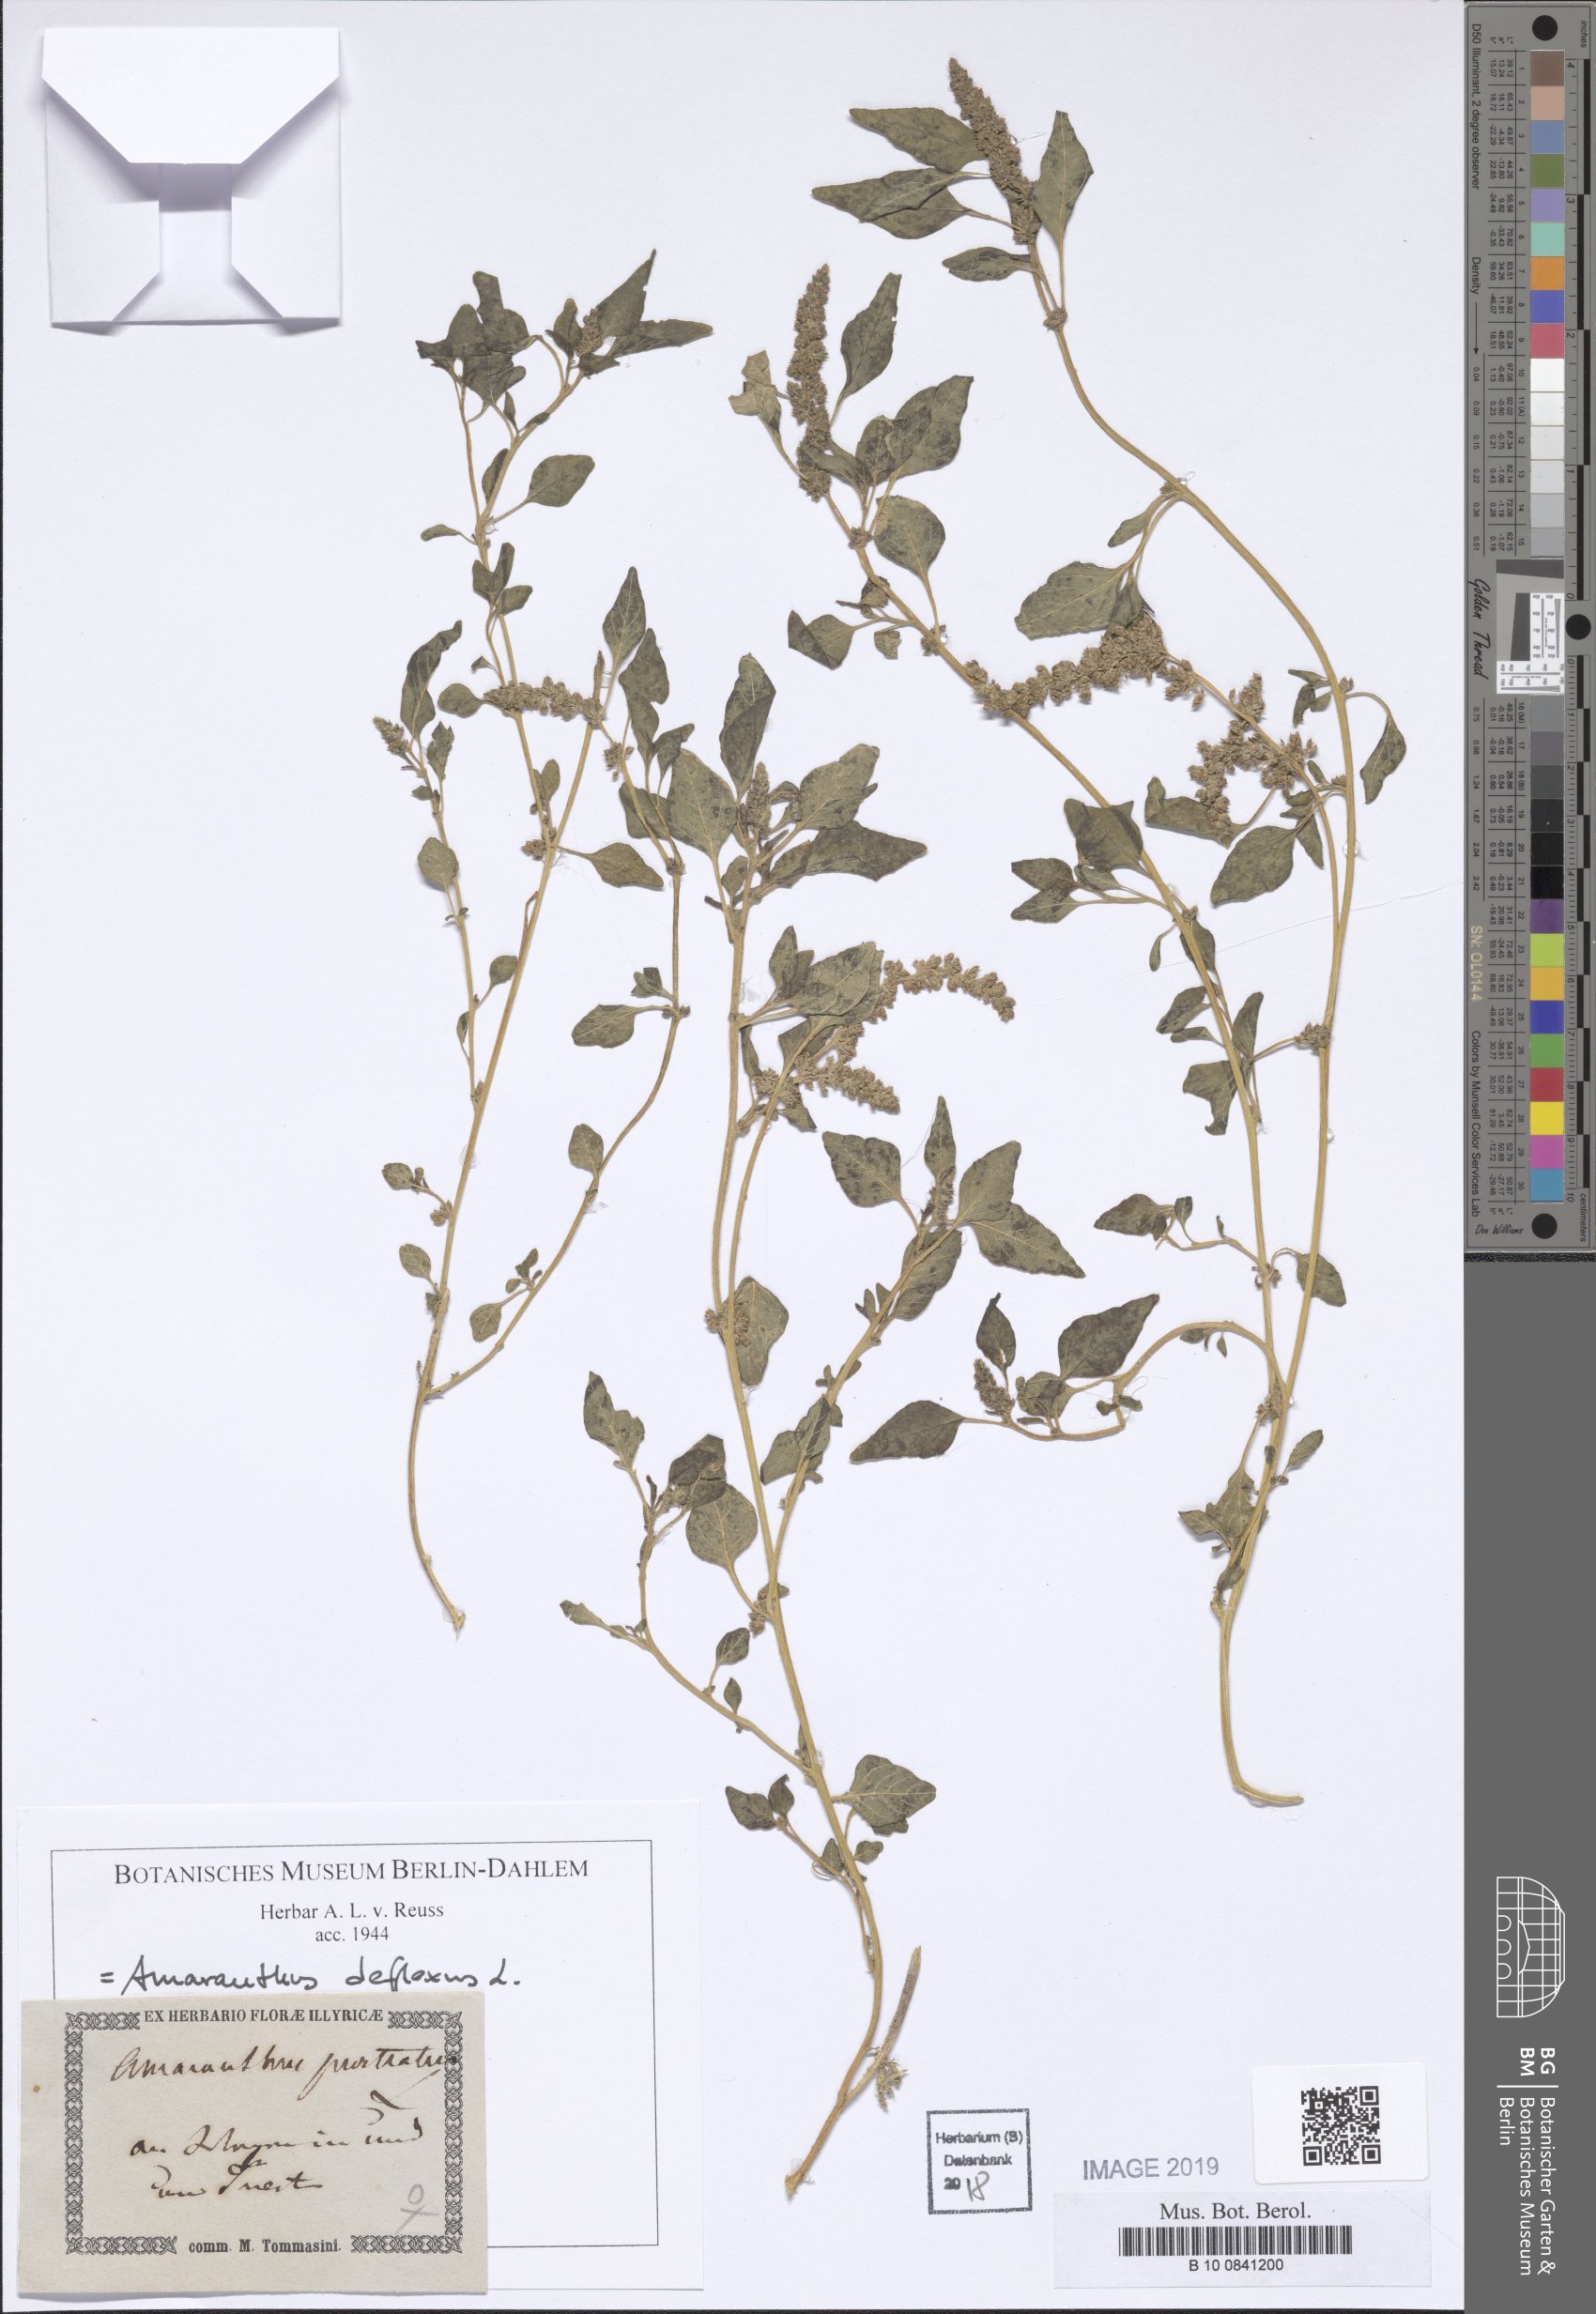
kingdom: Plantae
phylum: Tracheophyta
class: Magnoliopsida
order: Caryophyllales
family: Amaranthaceae
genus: Amaranthus
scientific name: Amaranthus deflexus
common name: Perennial pigweed
